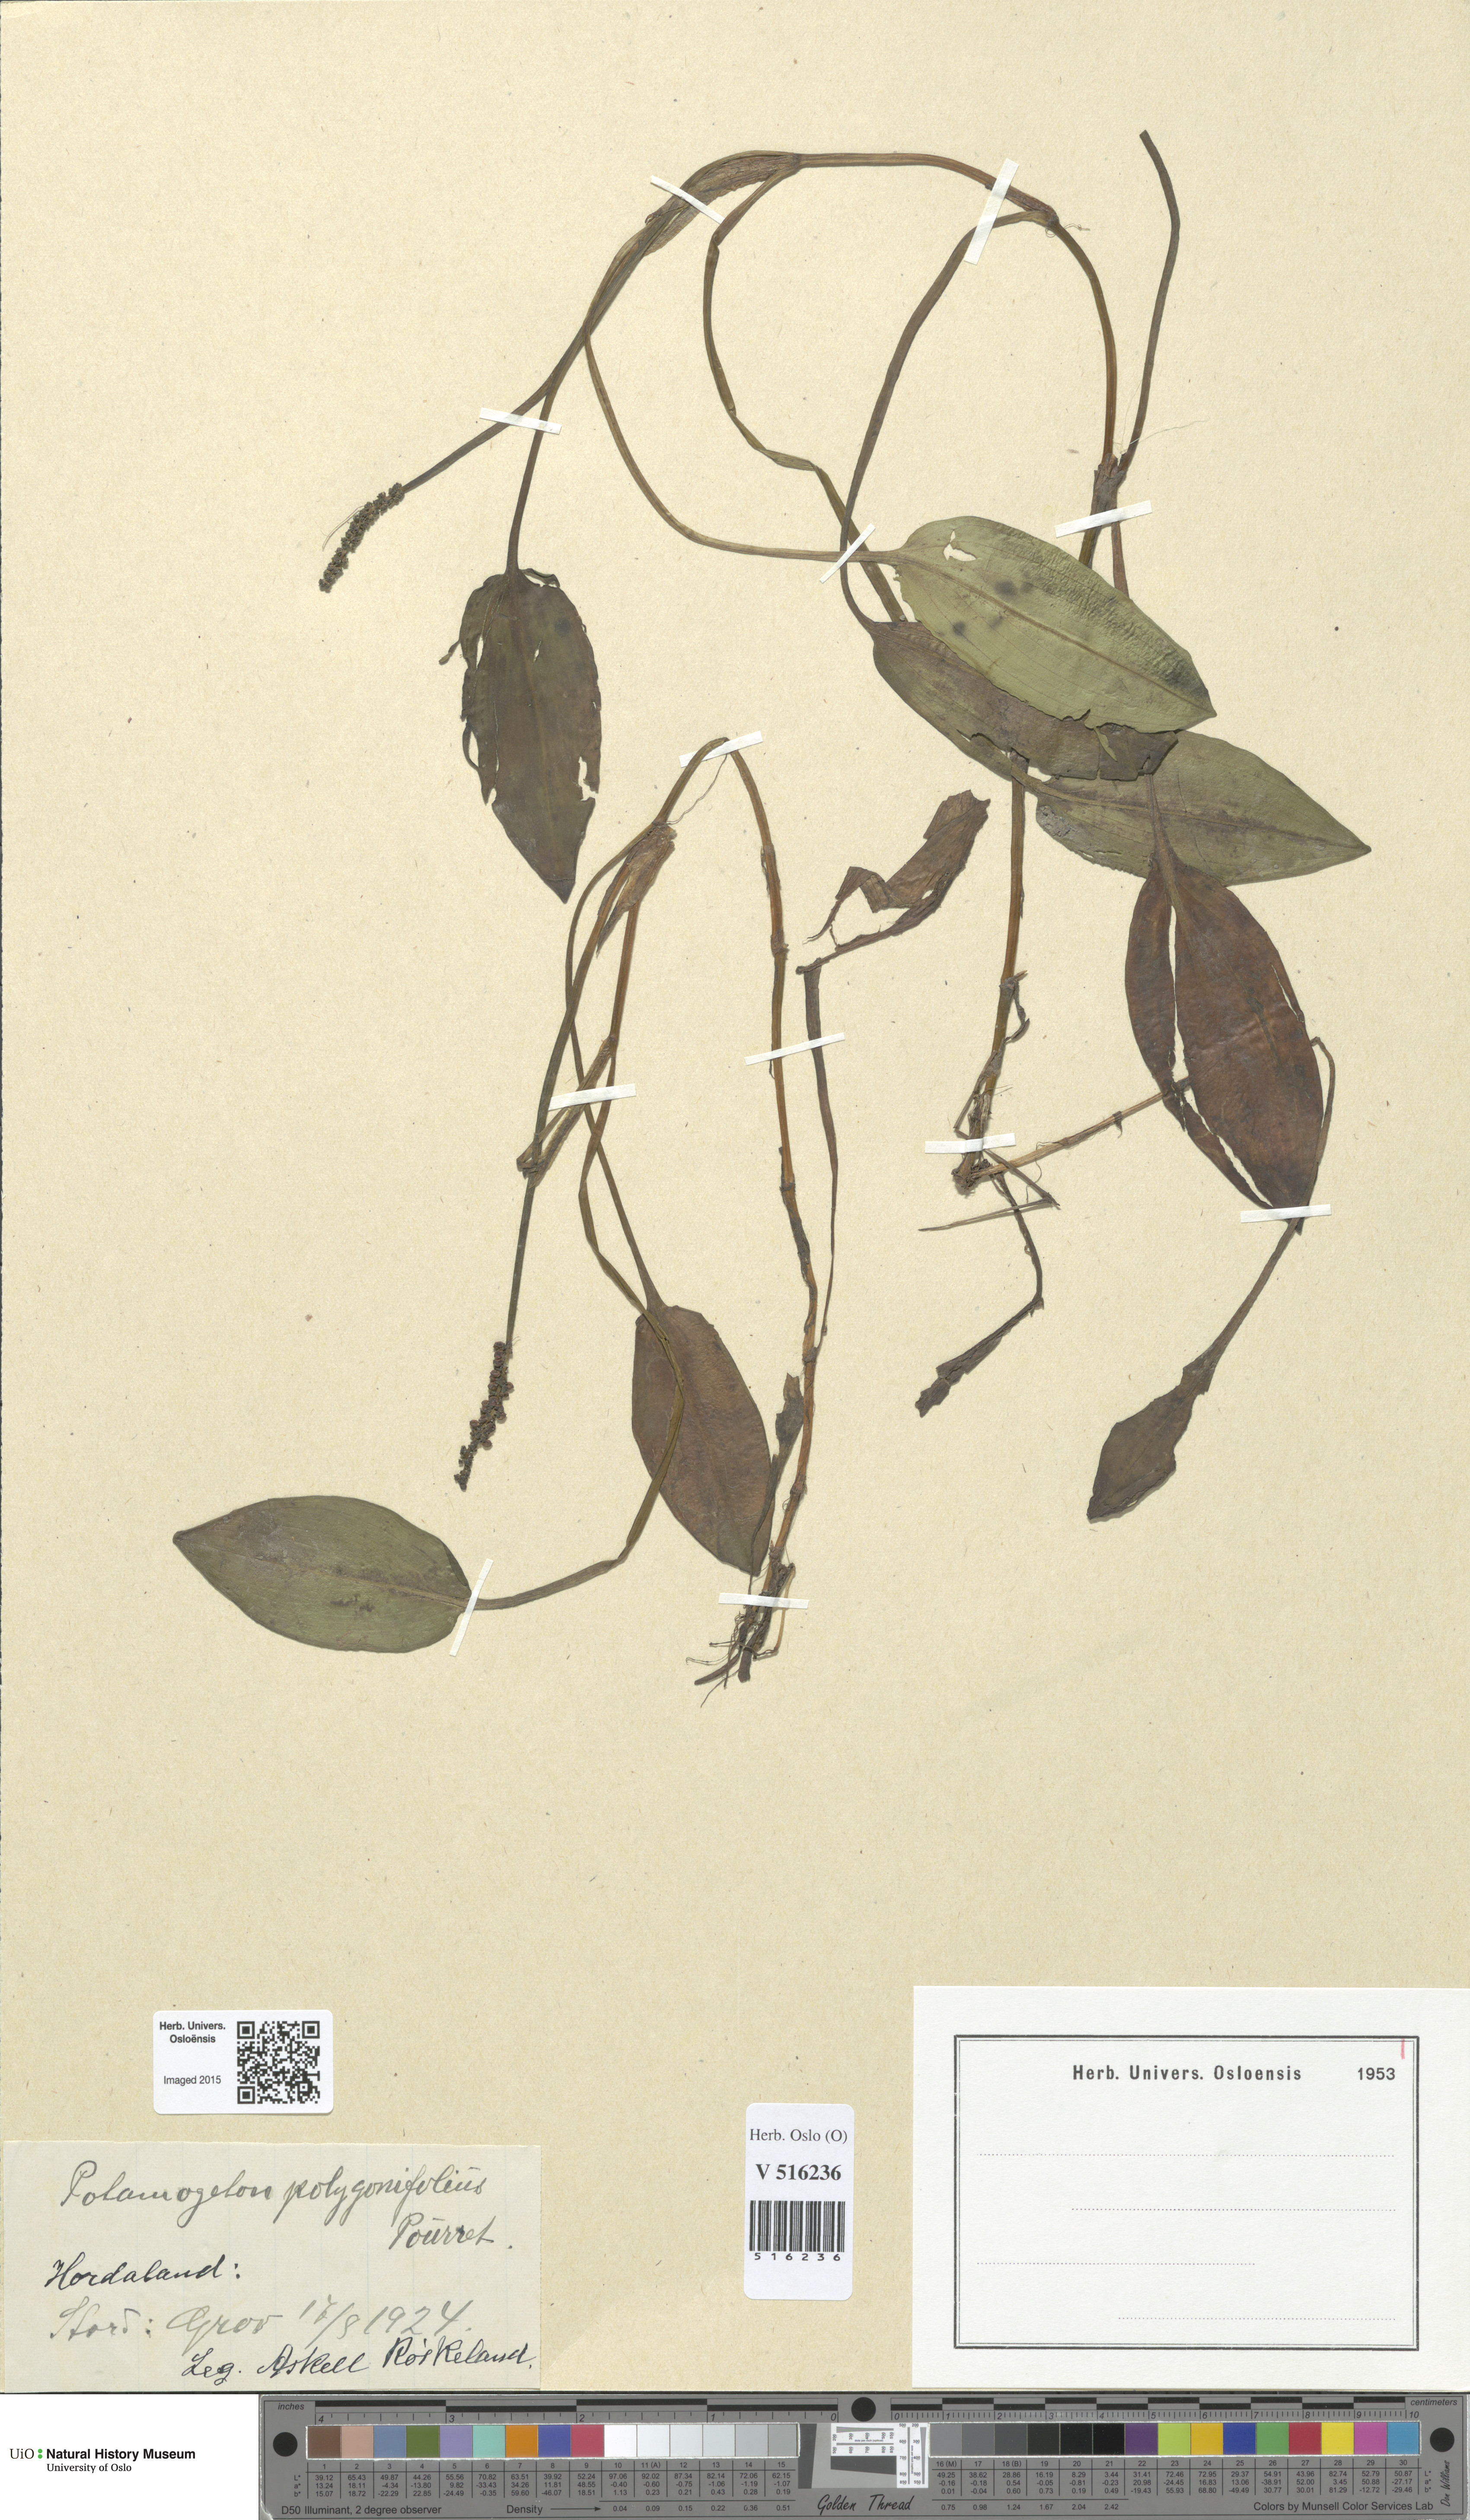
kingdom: Plantae
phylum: Tracheophyta
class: Liliopsida
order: Alismatales
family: Potamogetonaceae
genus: Potamogeton
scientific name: Potamogeton polygonifolius
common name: Bog pondweed
